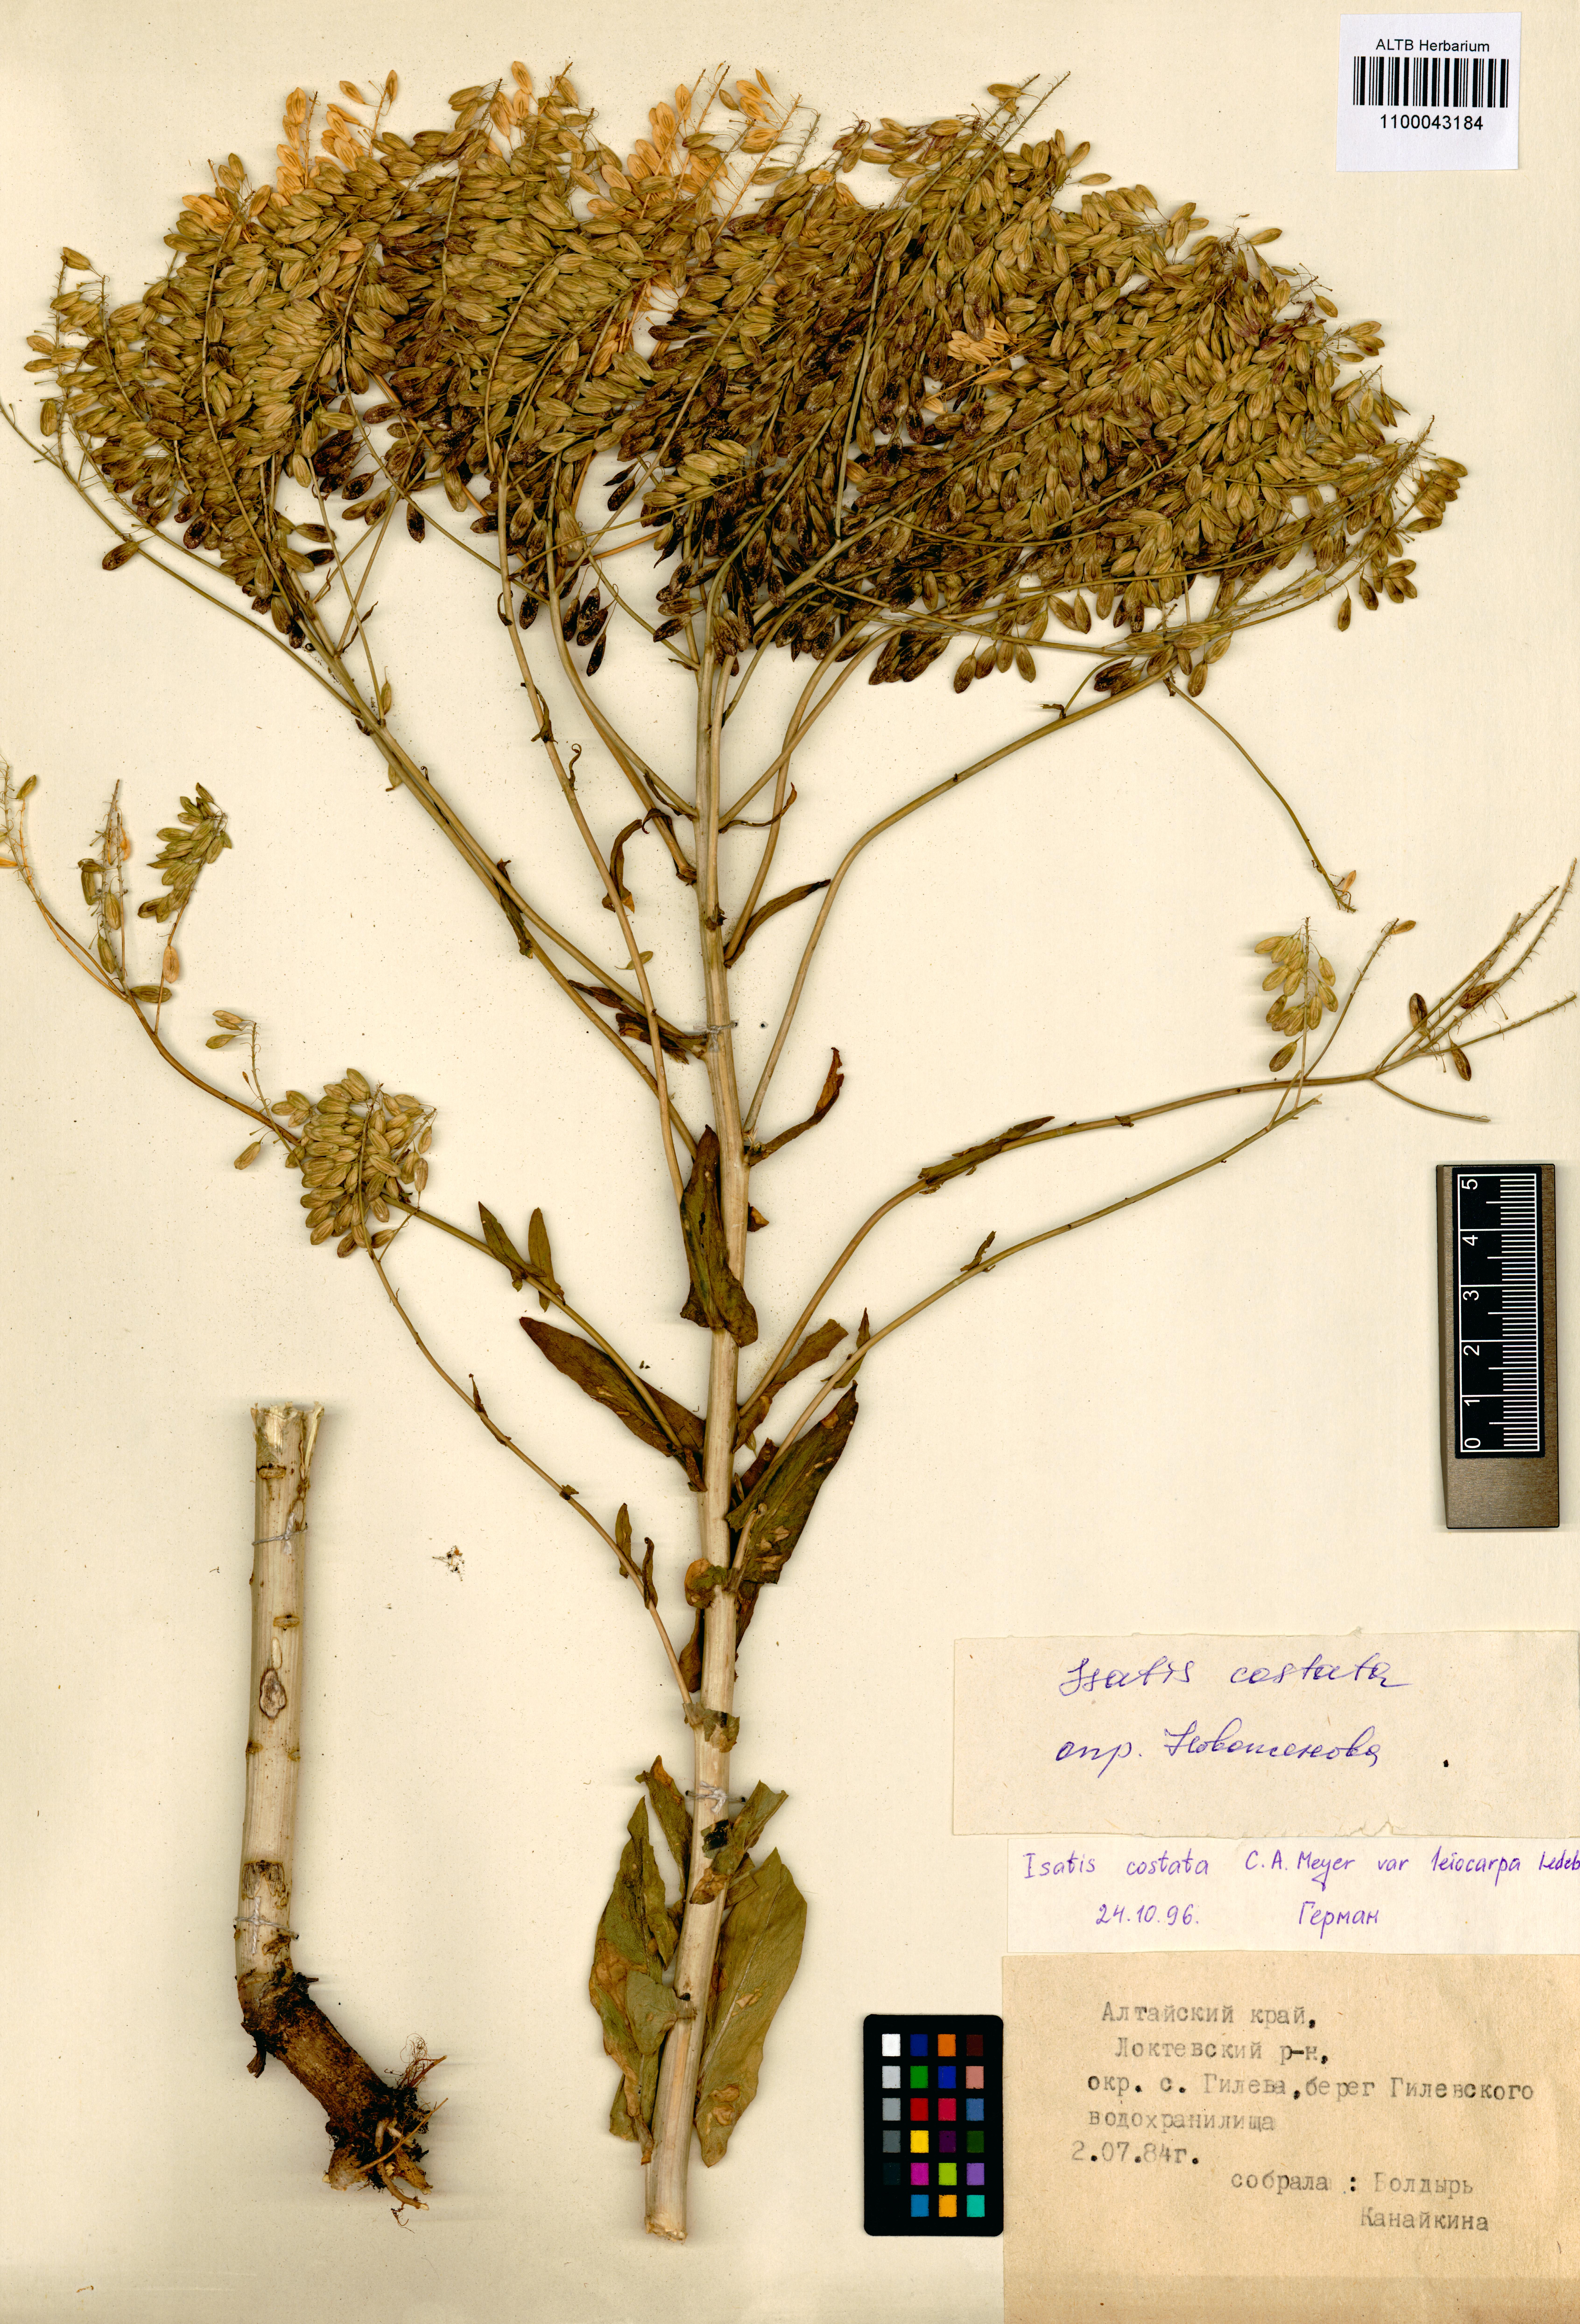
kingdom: Plantae
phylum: Tracheophyta
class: Magnoliopsida
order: Brassicales
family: Brassicaceae
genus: Isatis
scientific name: Isatis costata
